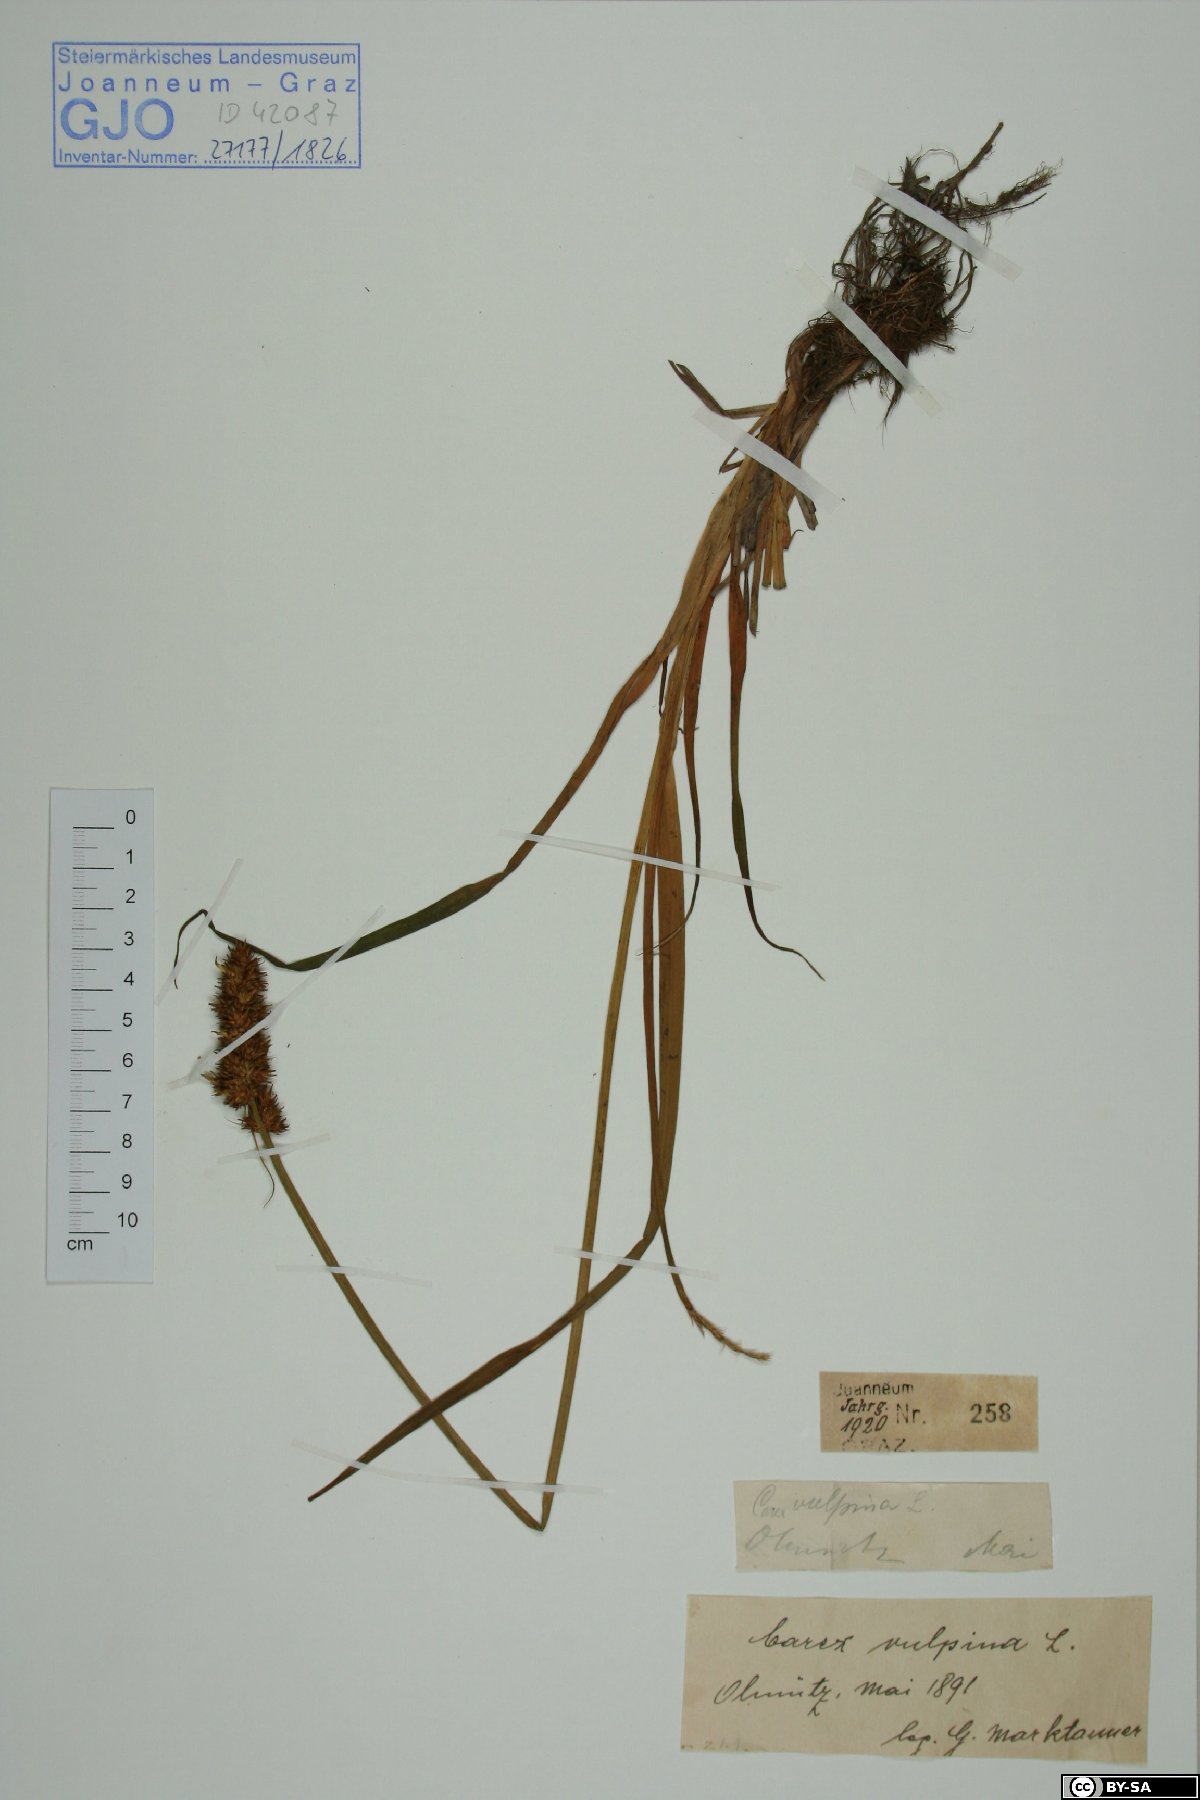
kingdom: Plantae
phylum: Tracheophyta
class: Liliopsida
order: Poales
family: Cyperaceae
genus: Carex
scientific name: Carex vulpina
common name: True fox-sedge
